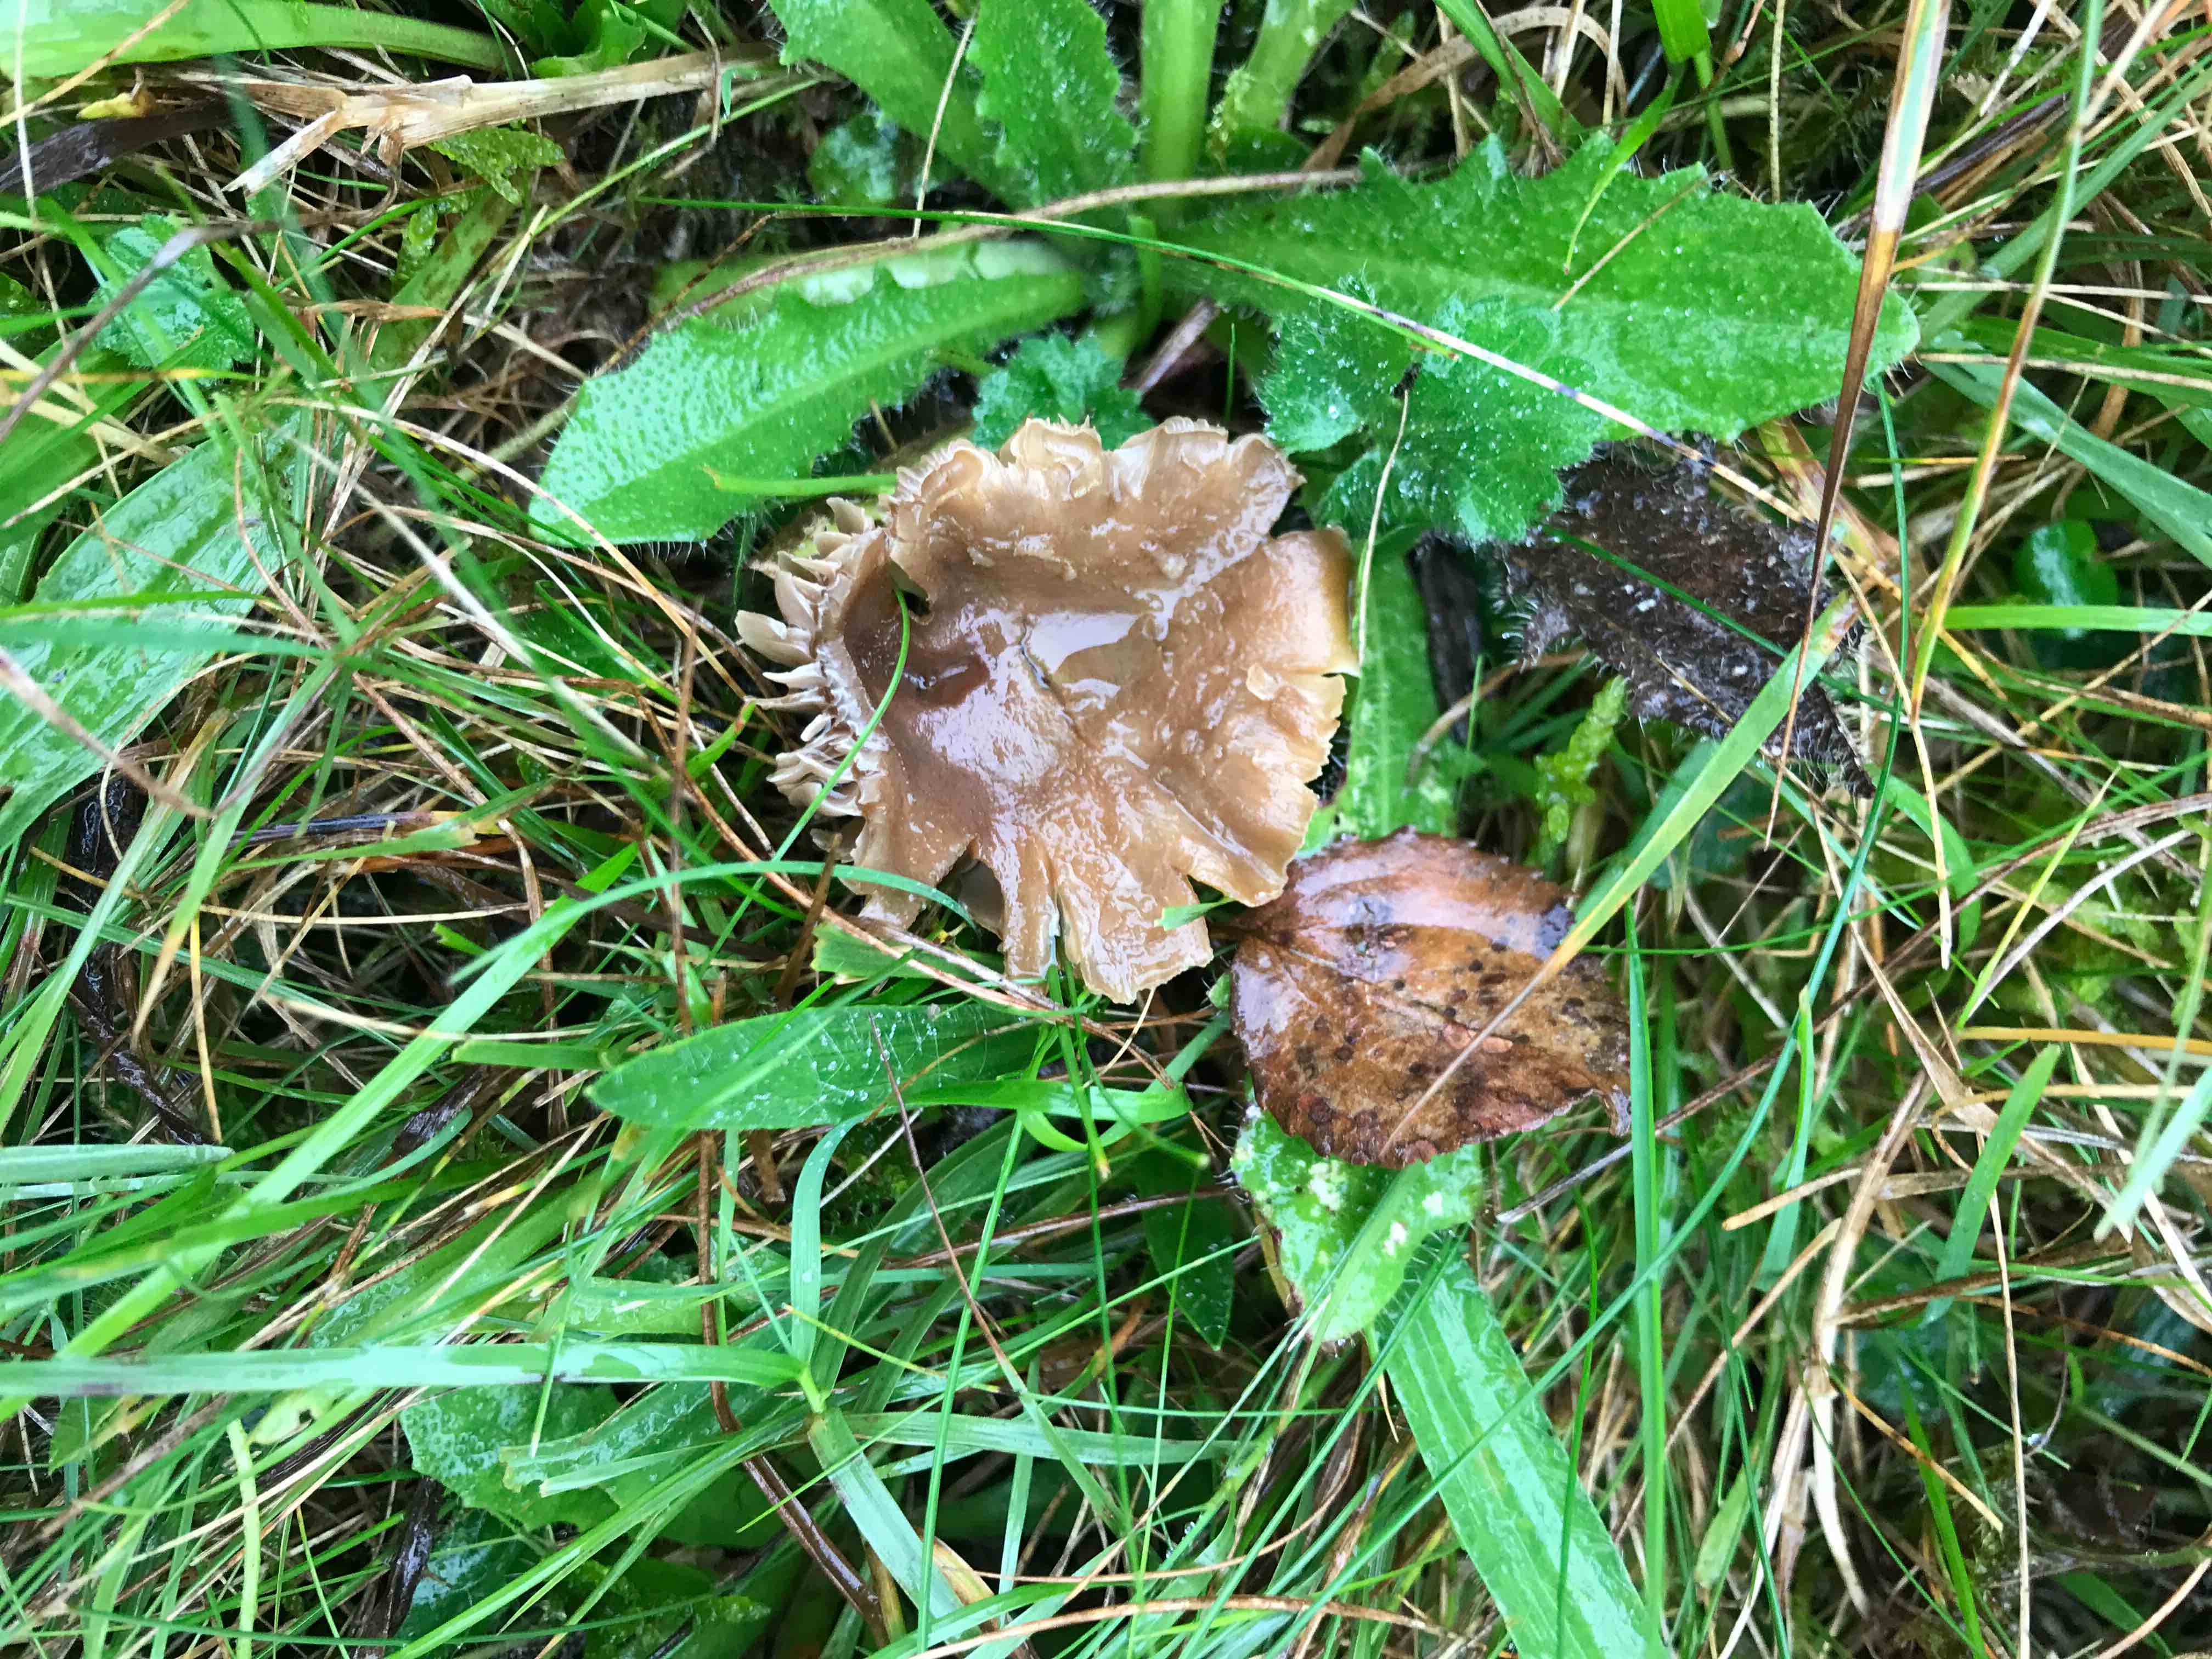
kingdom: Fungi
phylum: Basidiomycota
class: Agaricomycetes
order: Agaricales
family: Clavariaceae
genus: Camarophyllopsis
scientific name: Camarophyllopsis schulzeri
